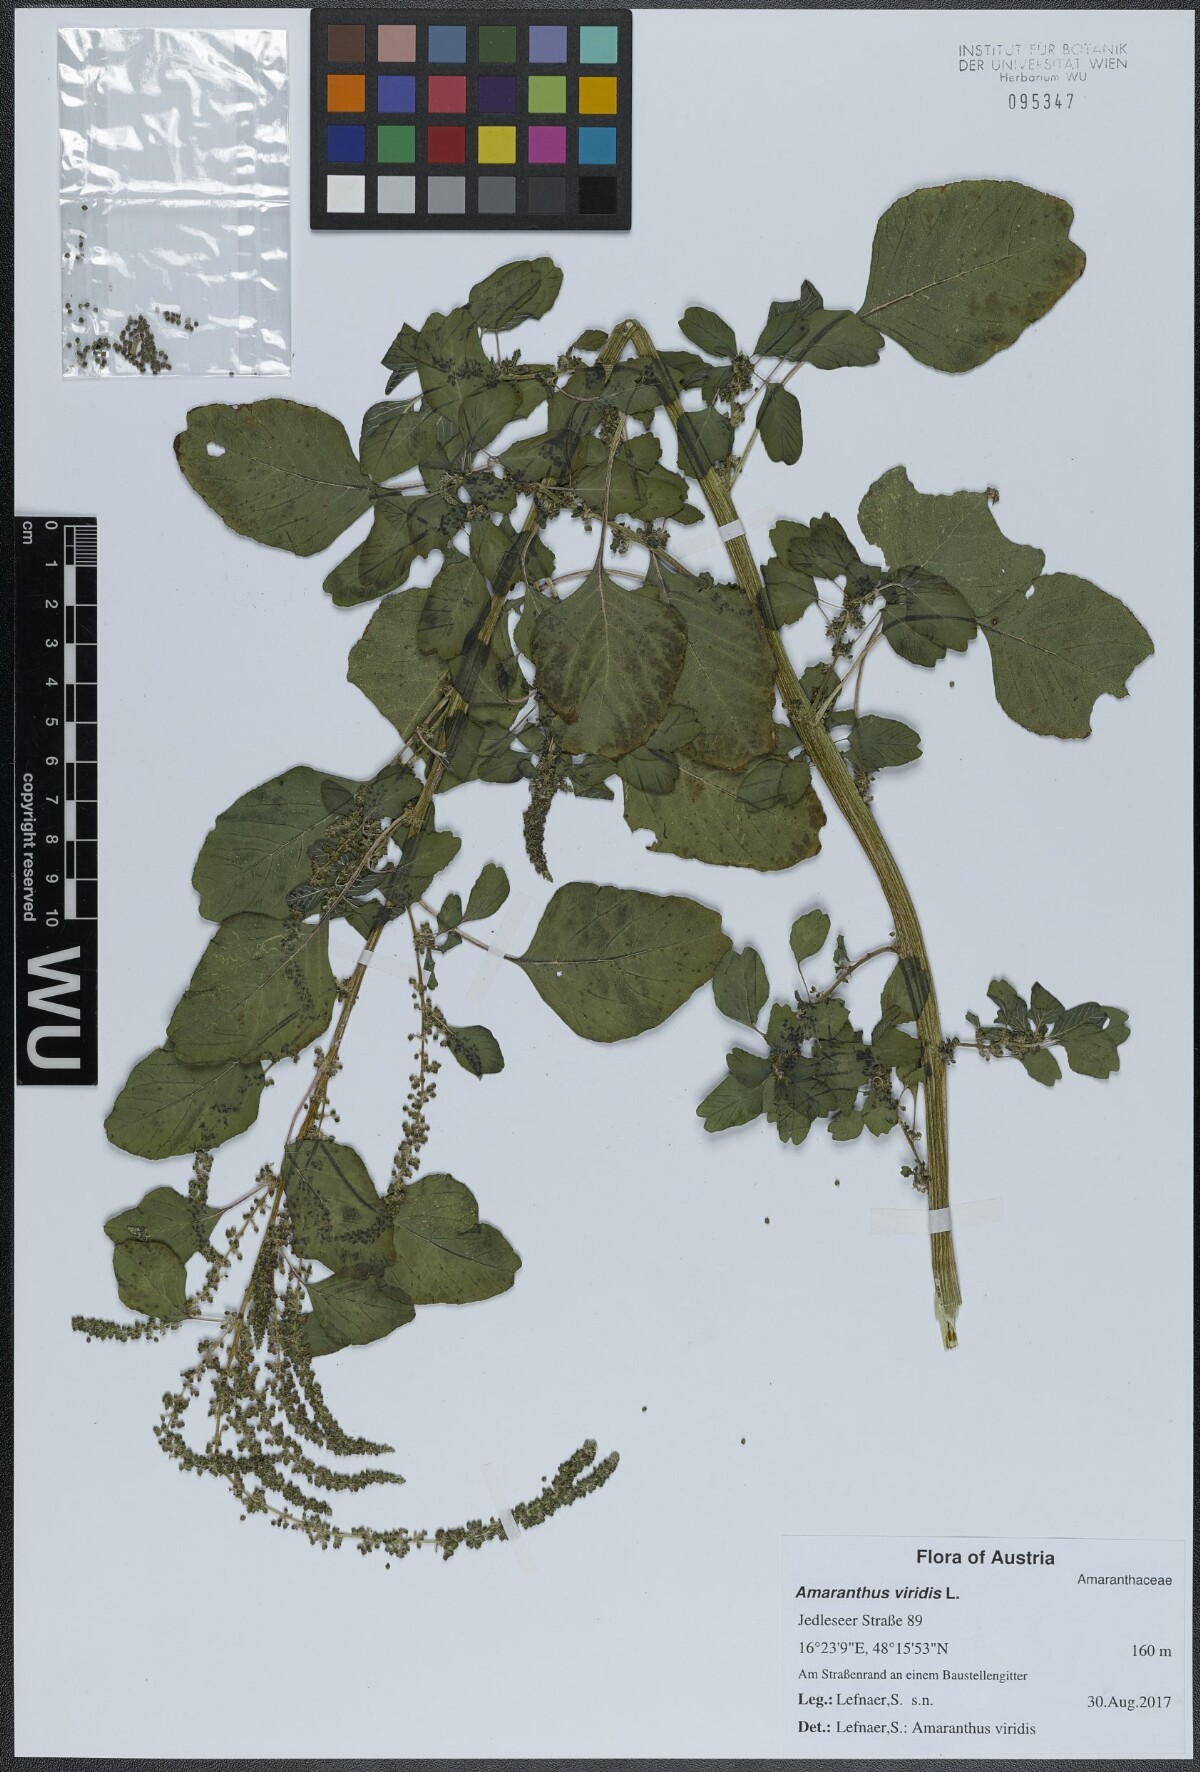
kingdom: Plantae
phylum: Tracheophyta
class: Magnoliopsida
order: Caryophyllales
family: Amaranthaceae
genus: Amaranthus
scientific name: Amaranthus viridis
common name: Slender amaranth
